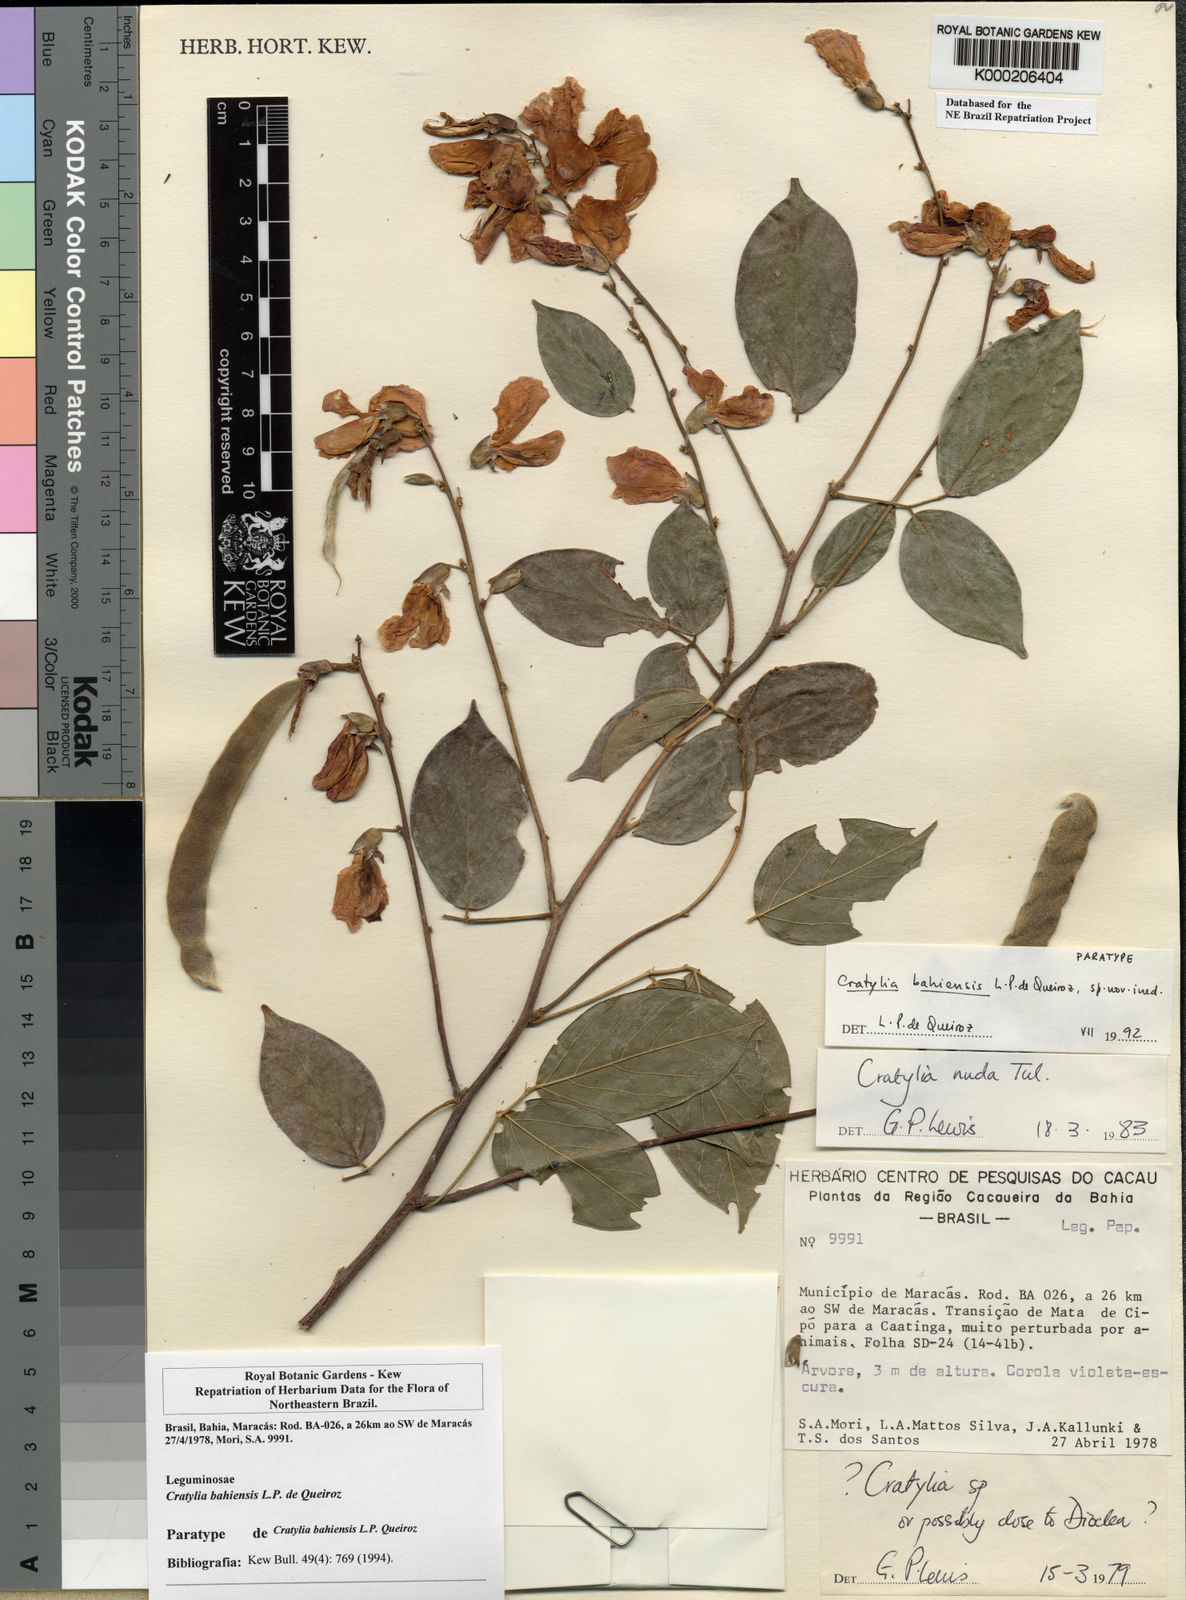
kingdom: Plantae
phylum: Tracheophyta
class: Magnoliopsida
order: Fabales
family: Fabaceae
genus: Cratylia
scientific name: Cratylia bahiensis
